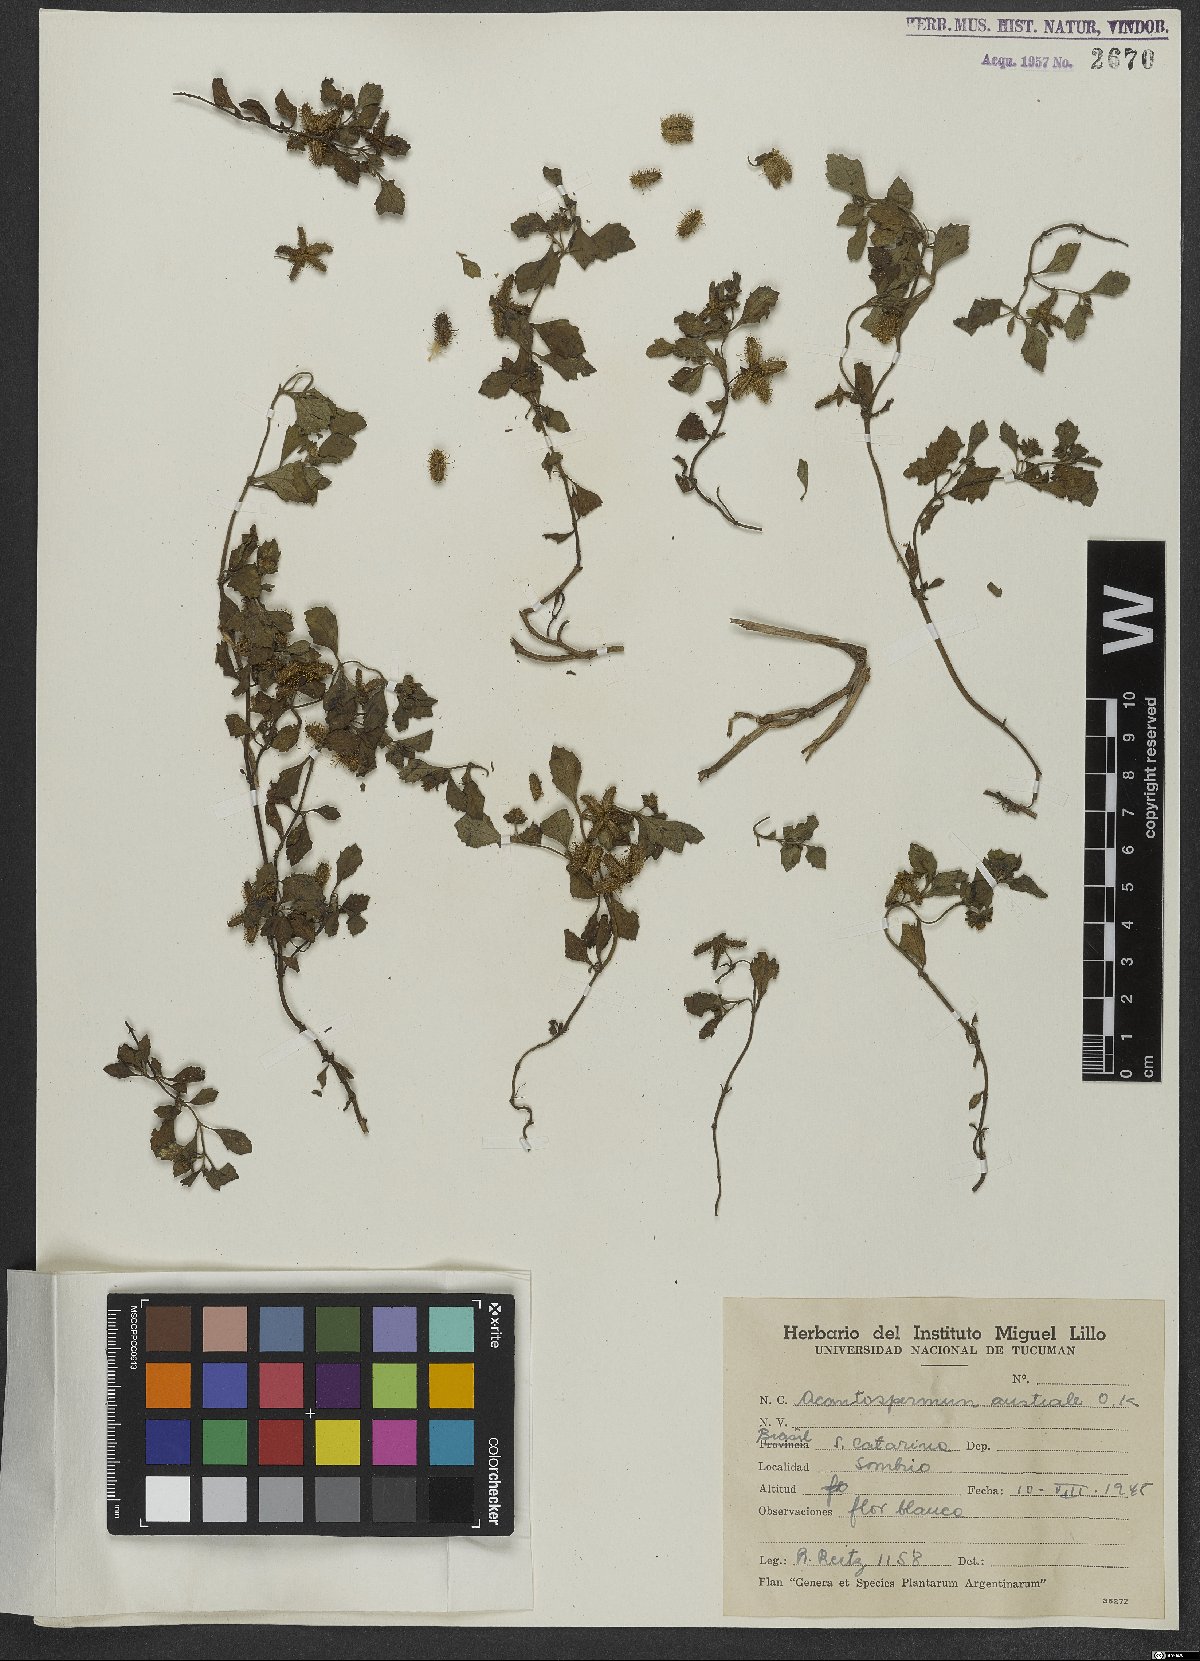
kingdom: Plantae
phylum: Tracheophyta
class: Magnoliopsida
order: Asterales
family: Asteraceae
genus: Acanthospermum
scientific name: Acanthospermum australe
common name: Paraguayan starbur
